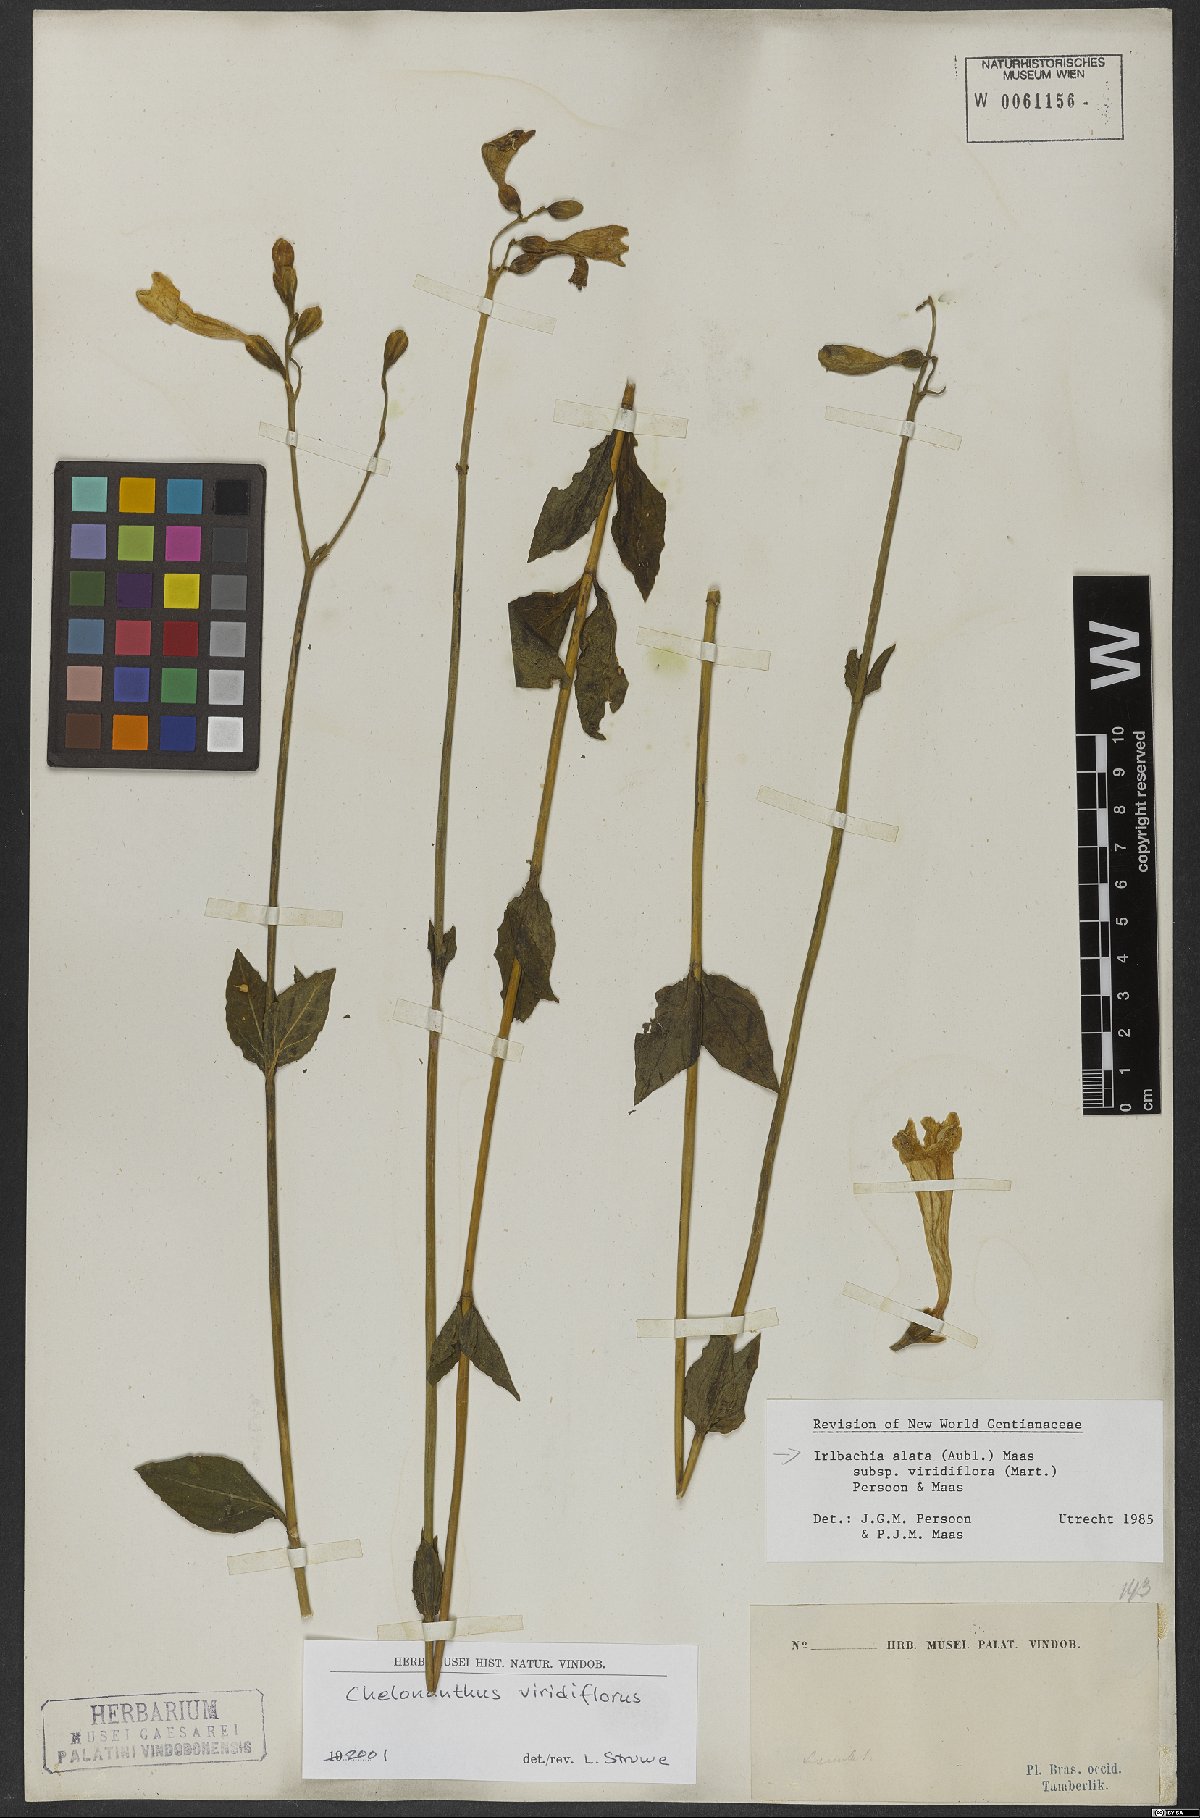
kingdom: Plantae
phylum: Tracheophyta
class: Magnoliopsida
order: Gentianales
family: Gentianaceae
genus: Chelonanthus
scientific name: Chelonanthus viridiflorus
